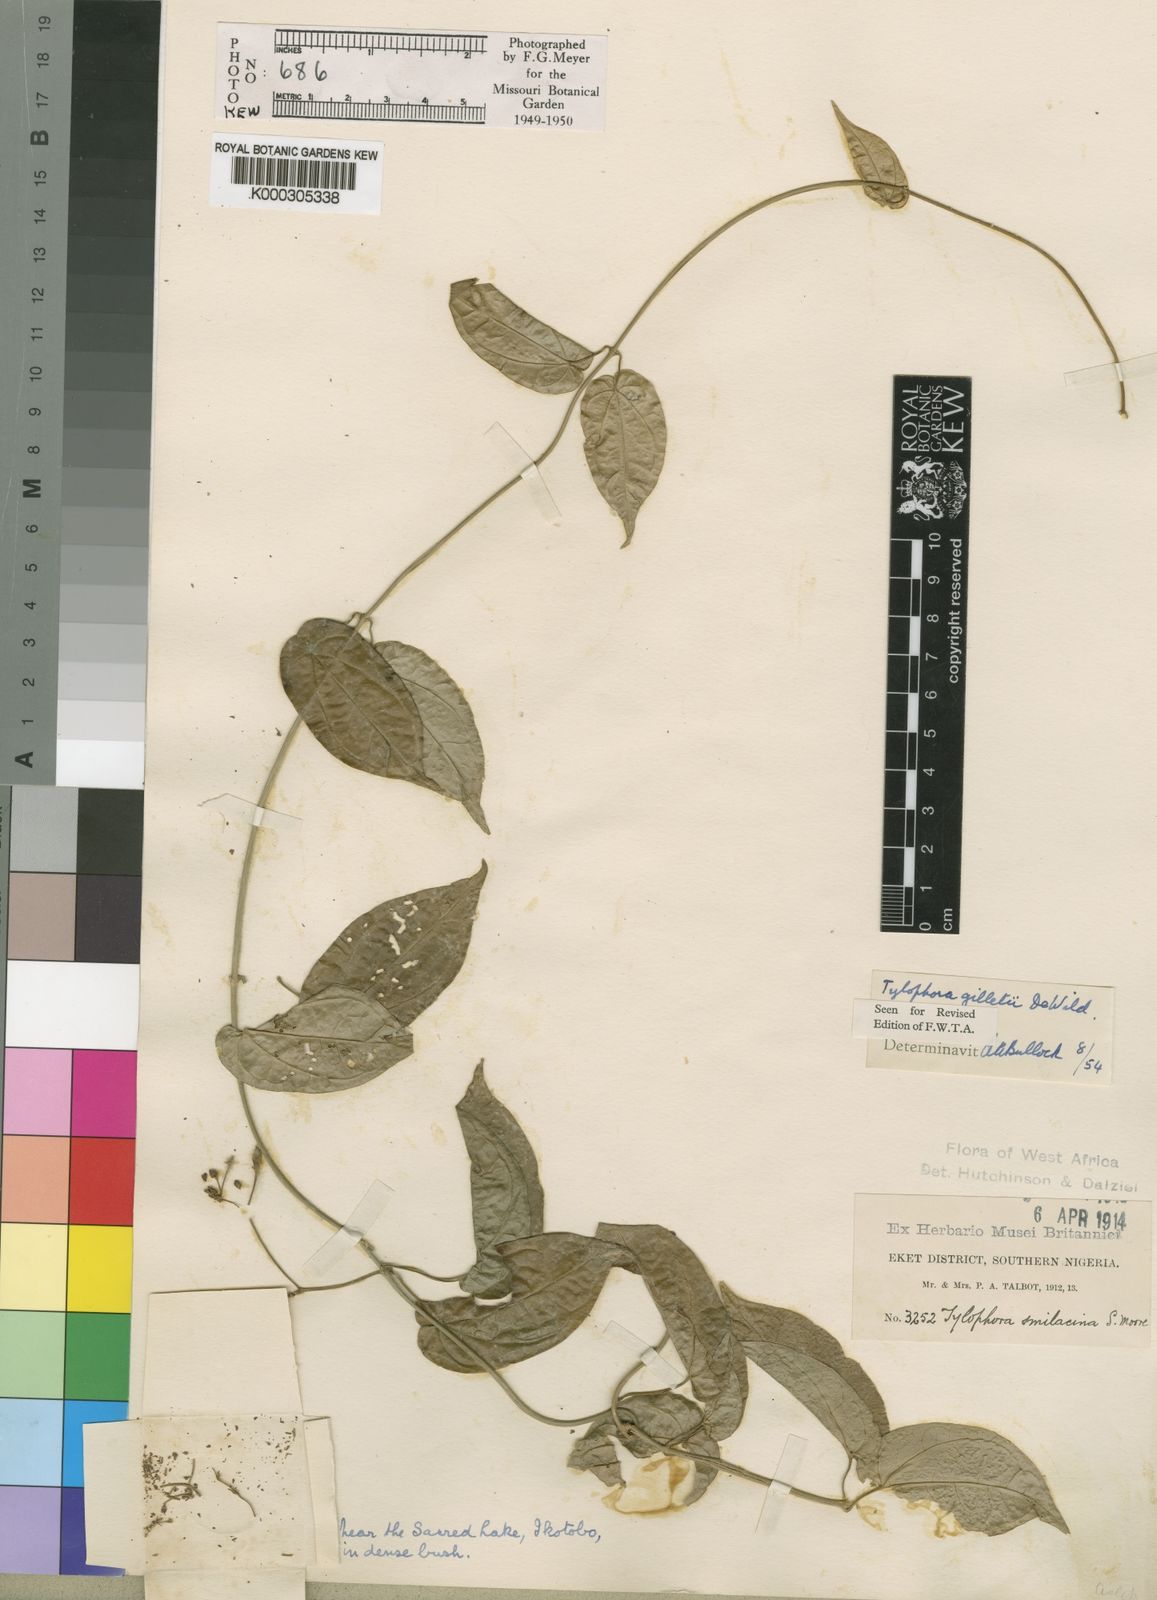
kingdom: Plantae
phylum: Tracheophyta
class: Magnoliopsida
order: Gentianales
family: Apocynaceae
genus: Vincetoxicum
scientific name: Vincetoxicum gilletii
